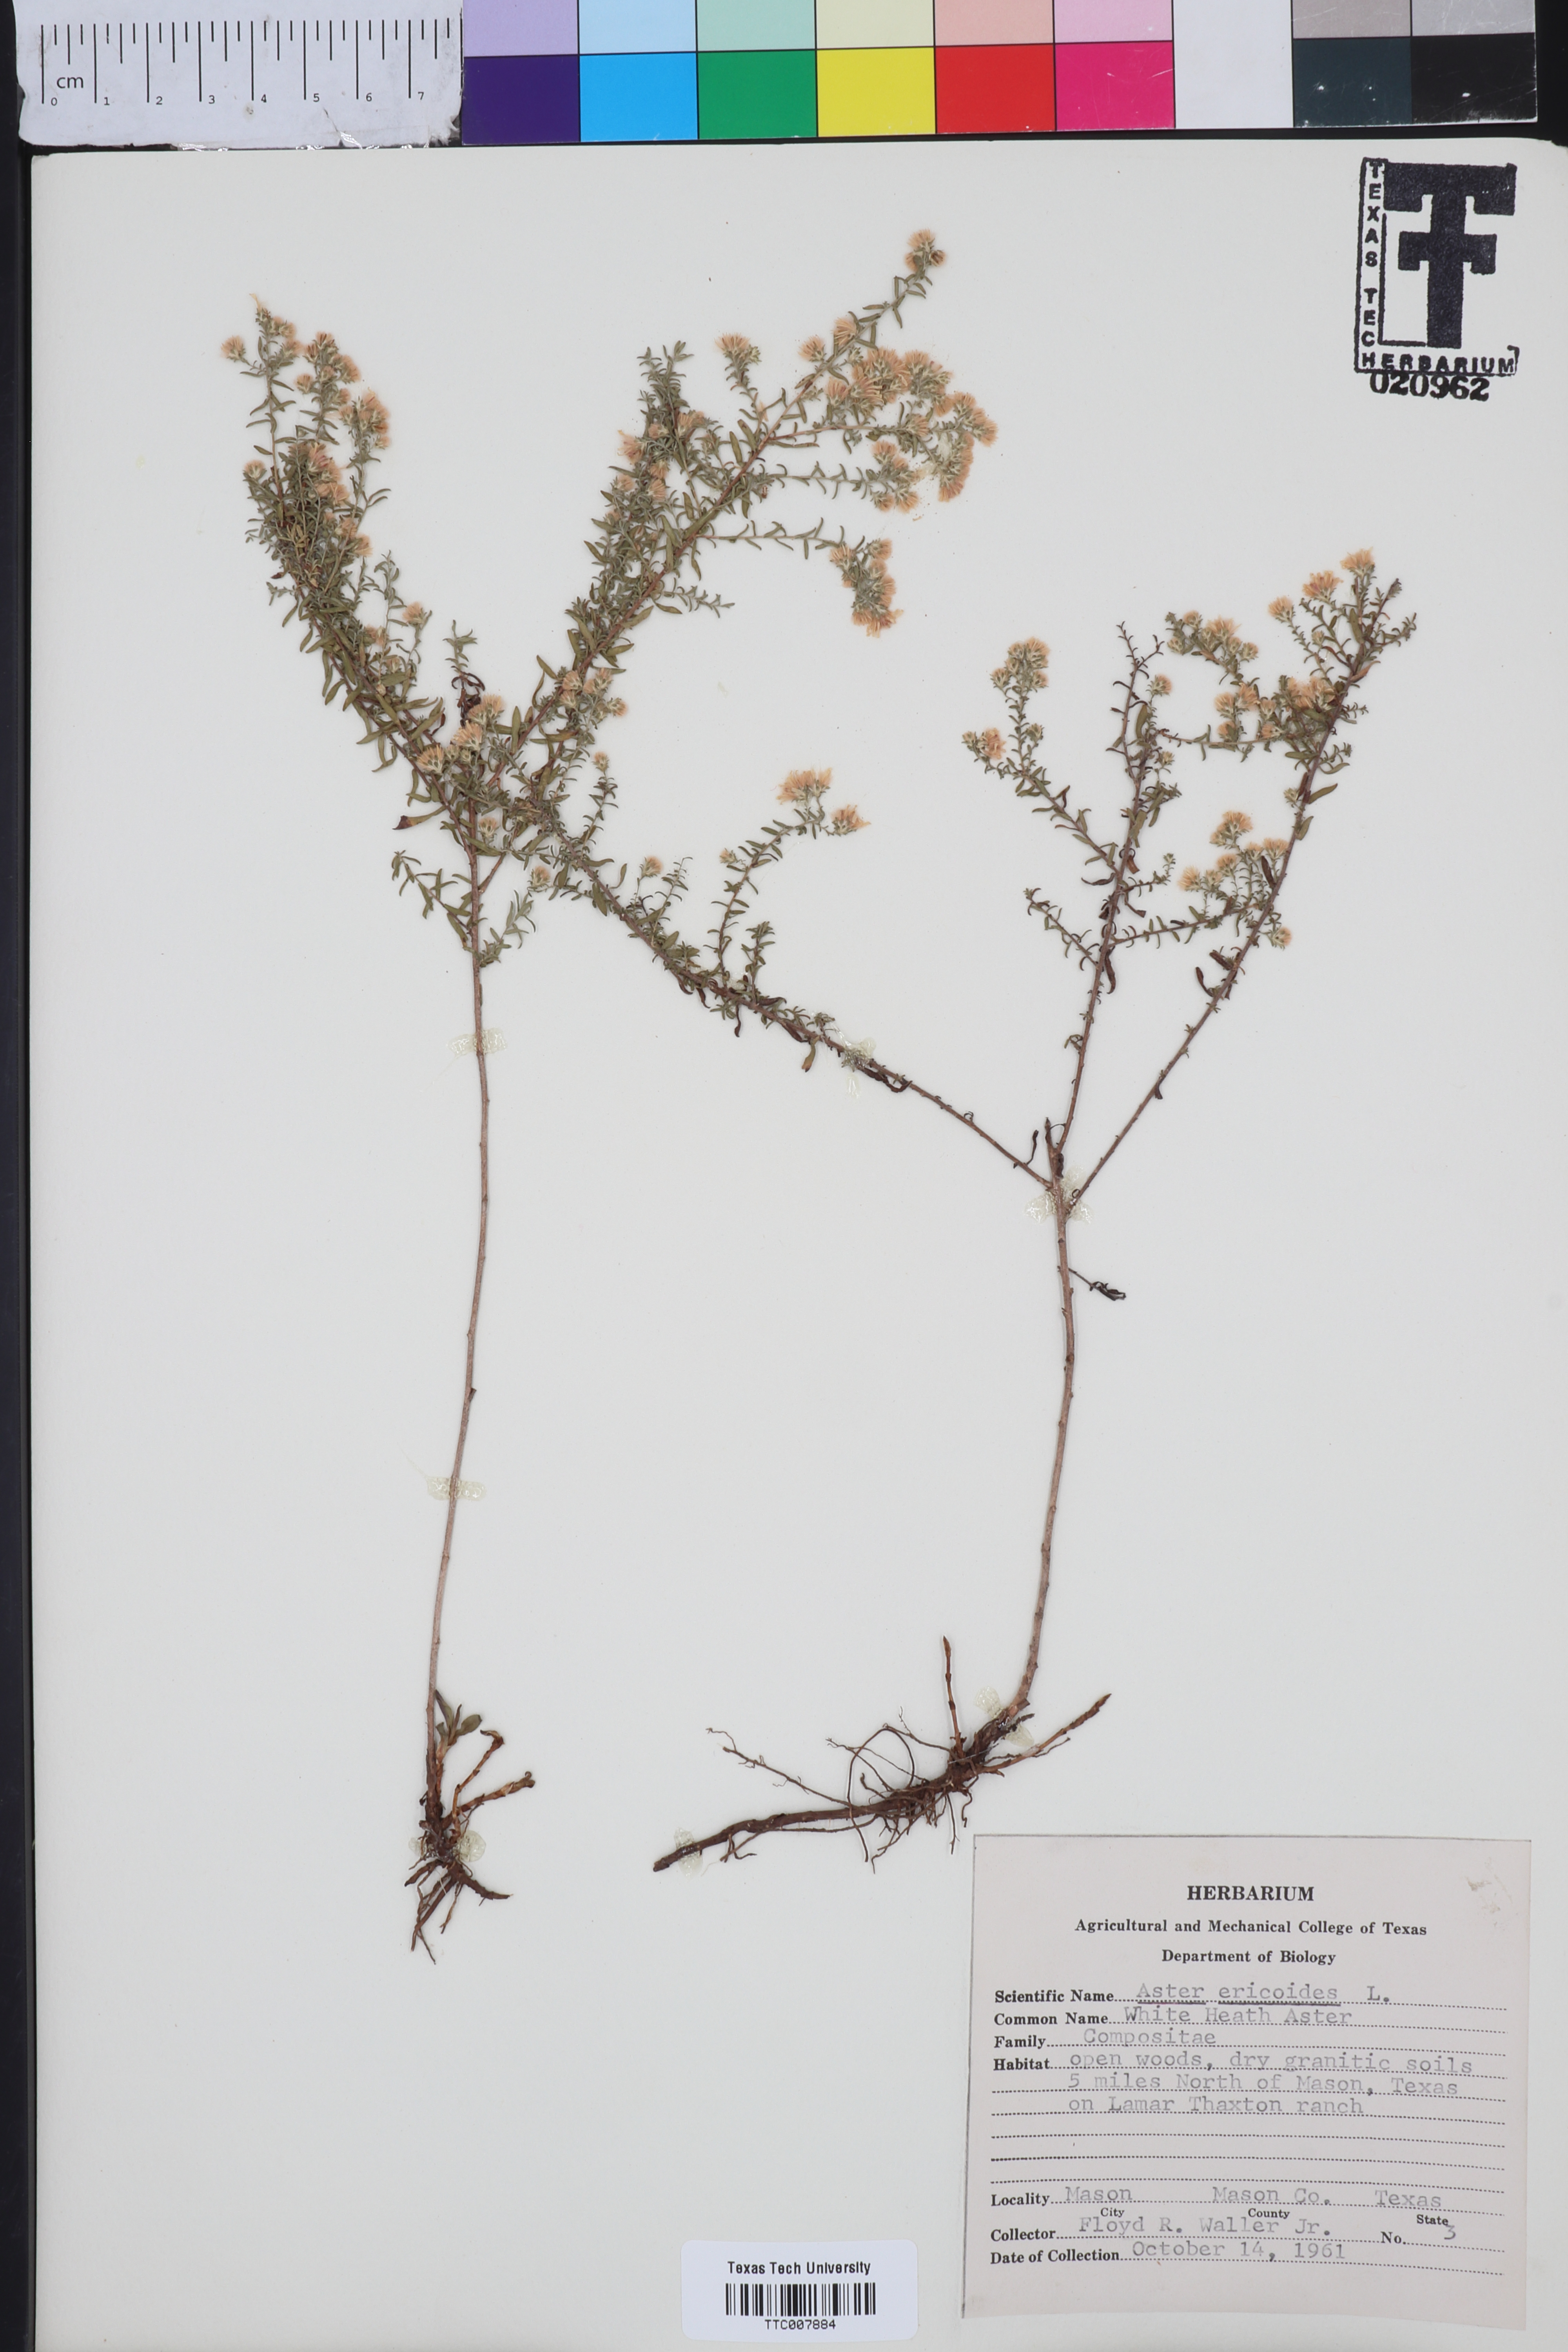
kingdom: Plantae
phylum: Tracheophyta
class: Magnoliopsida
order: Asterales
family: Asteraceae
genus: Symphyotrichum
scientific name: Symphyotrichum ericoides
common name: Heath aster
